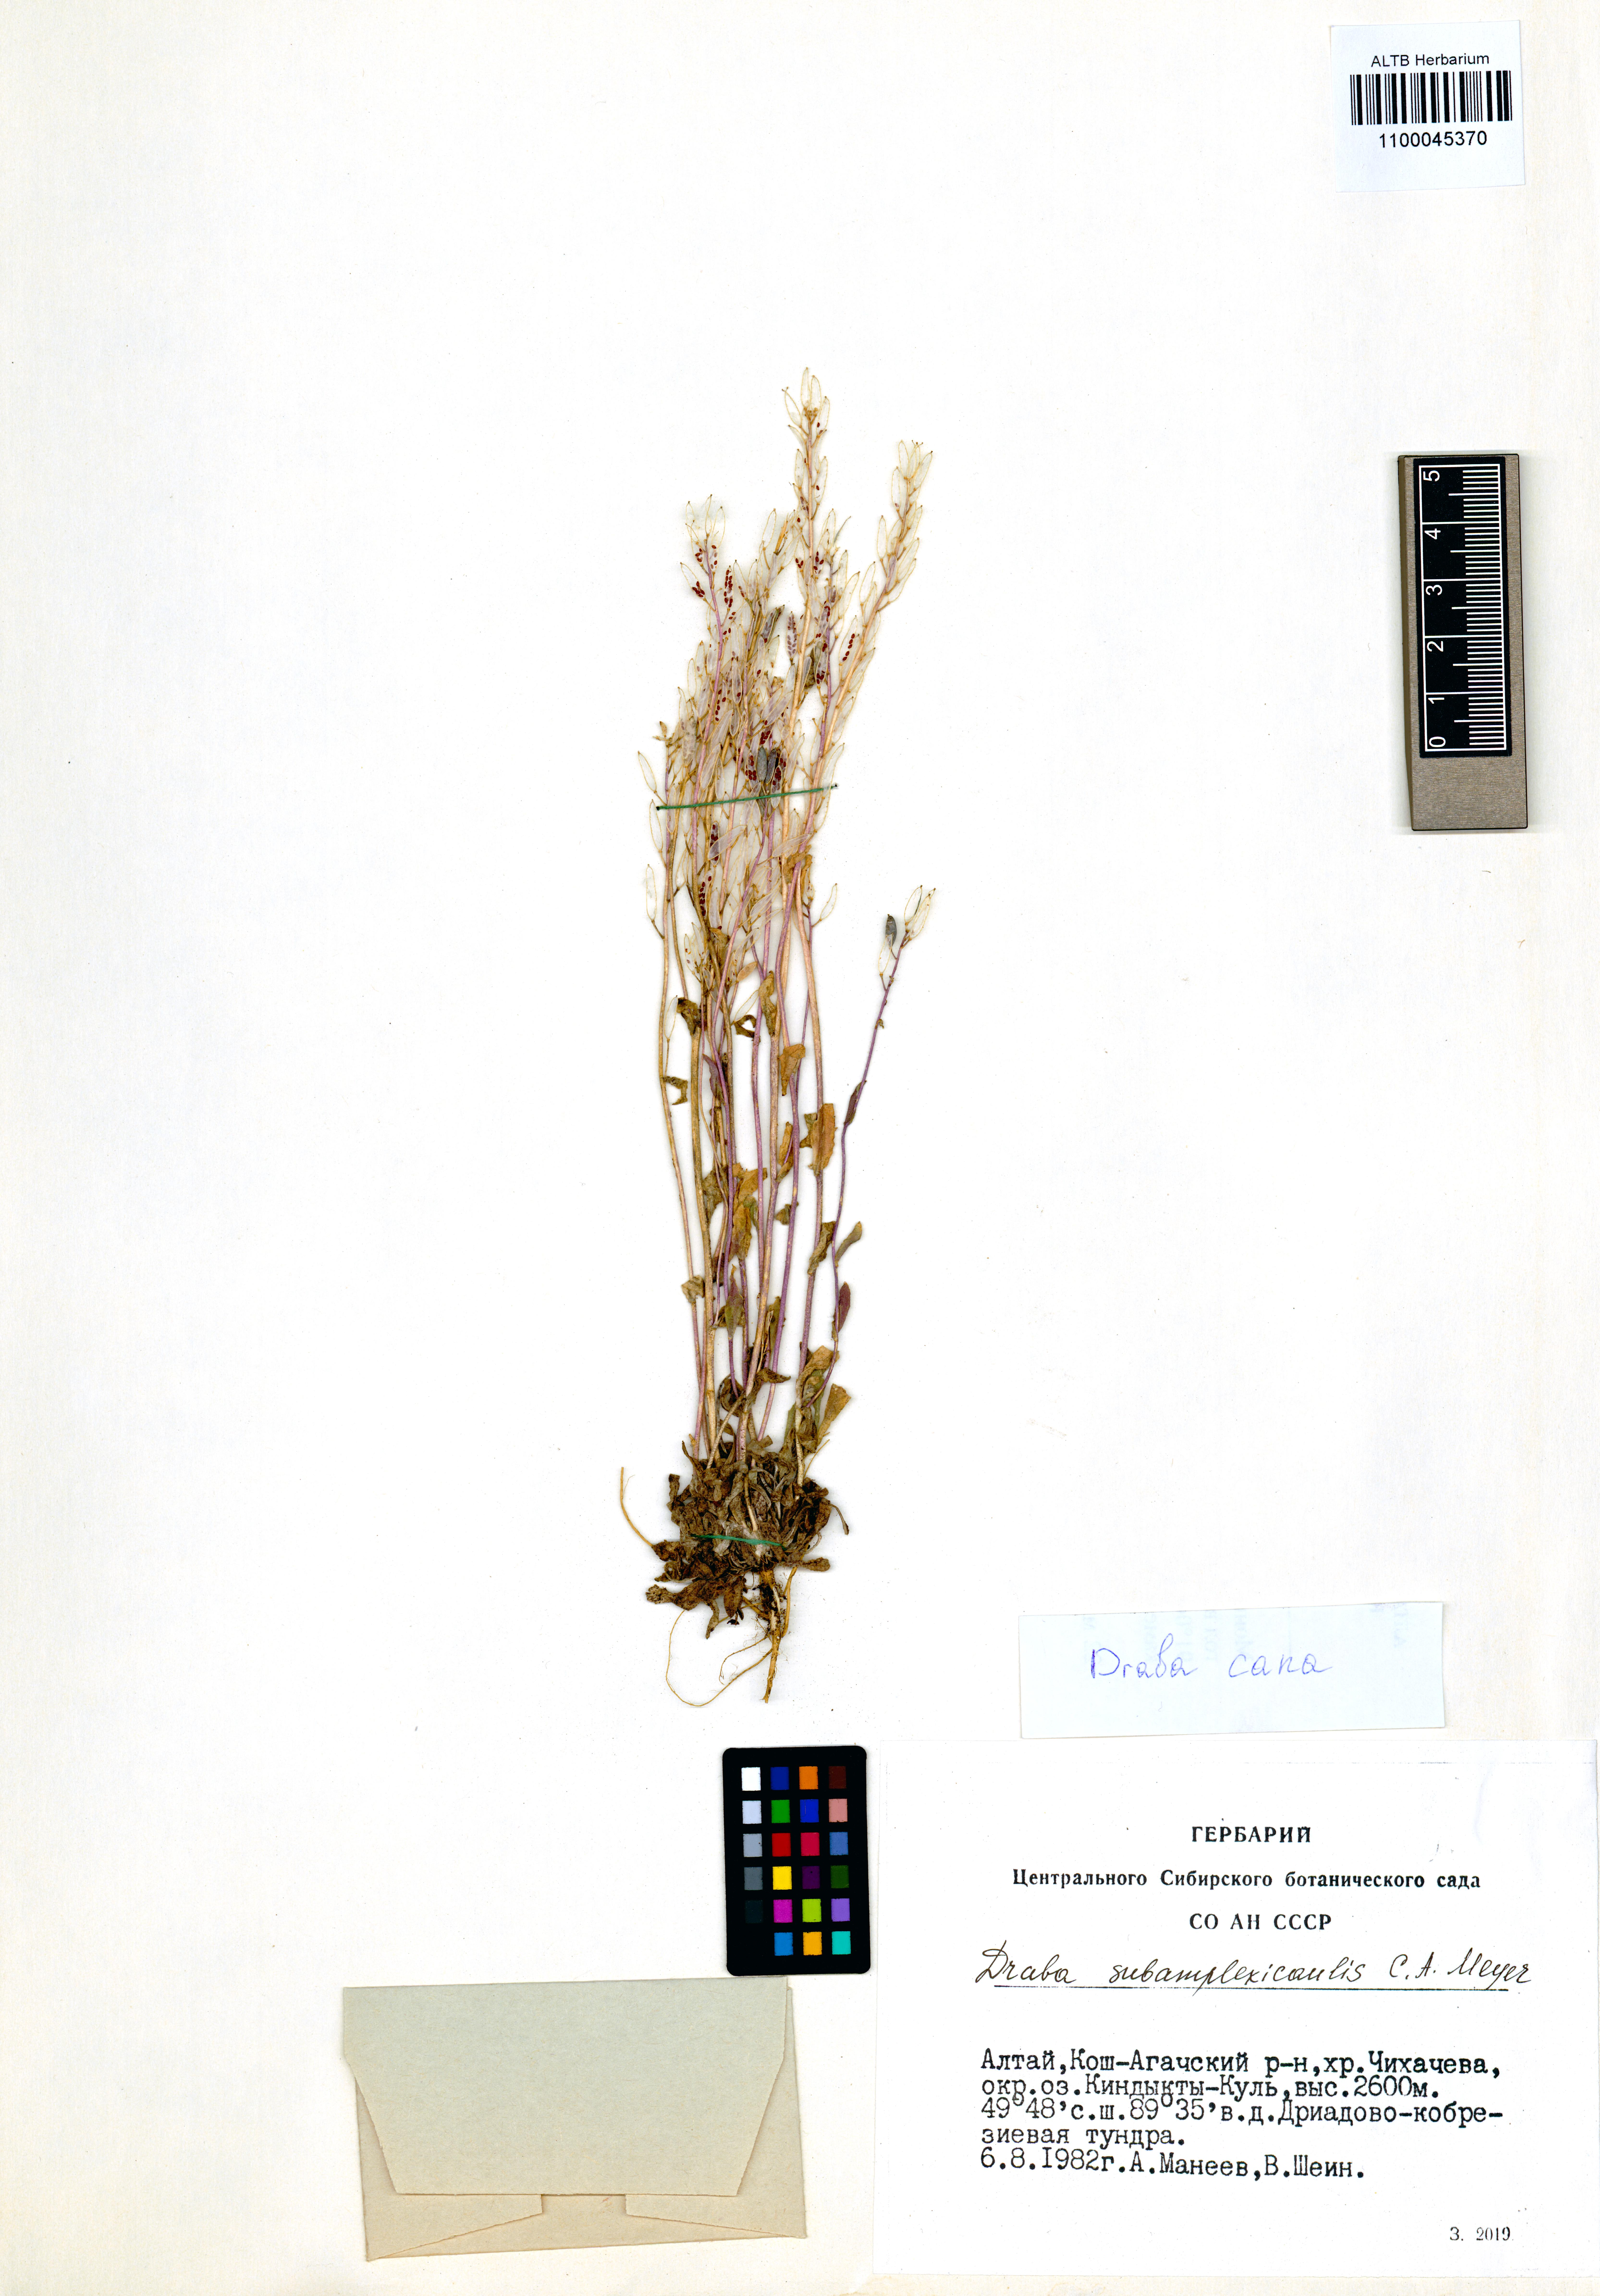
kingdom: Plantae
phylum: Tracheophyta
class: Magnoliopsida
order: Brassicales
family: Brassicaceae
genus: Draba
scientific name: Draba cana
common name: Hoary draba
